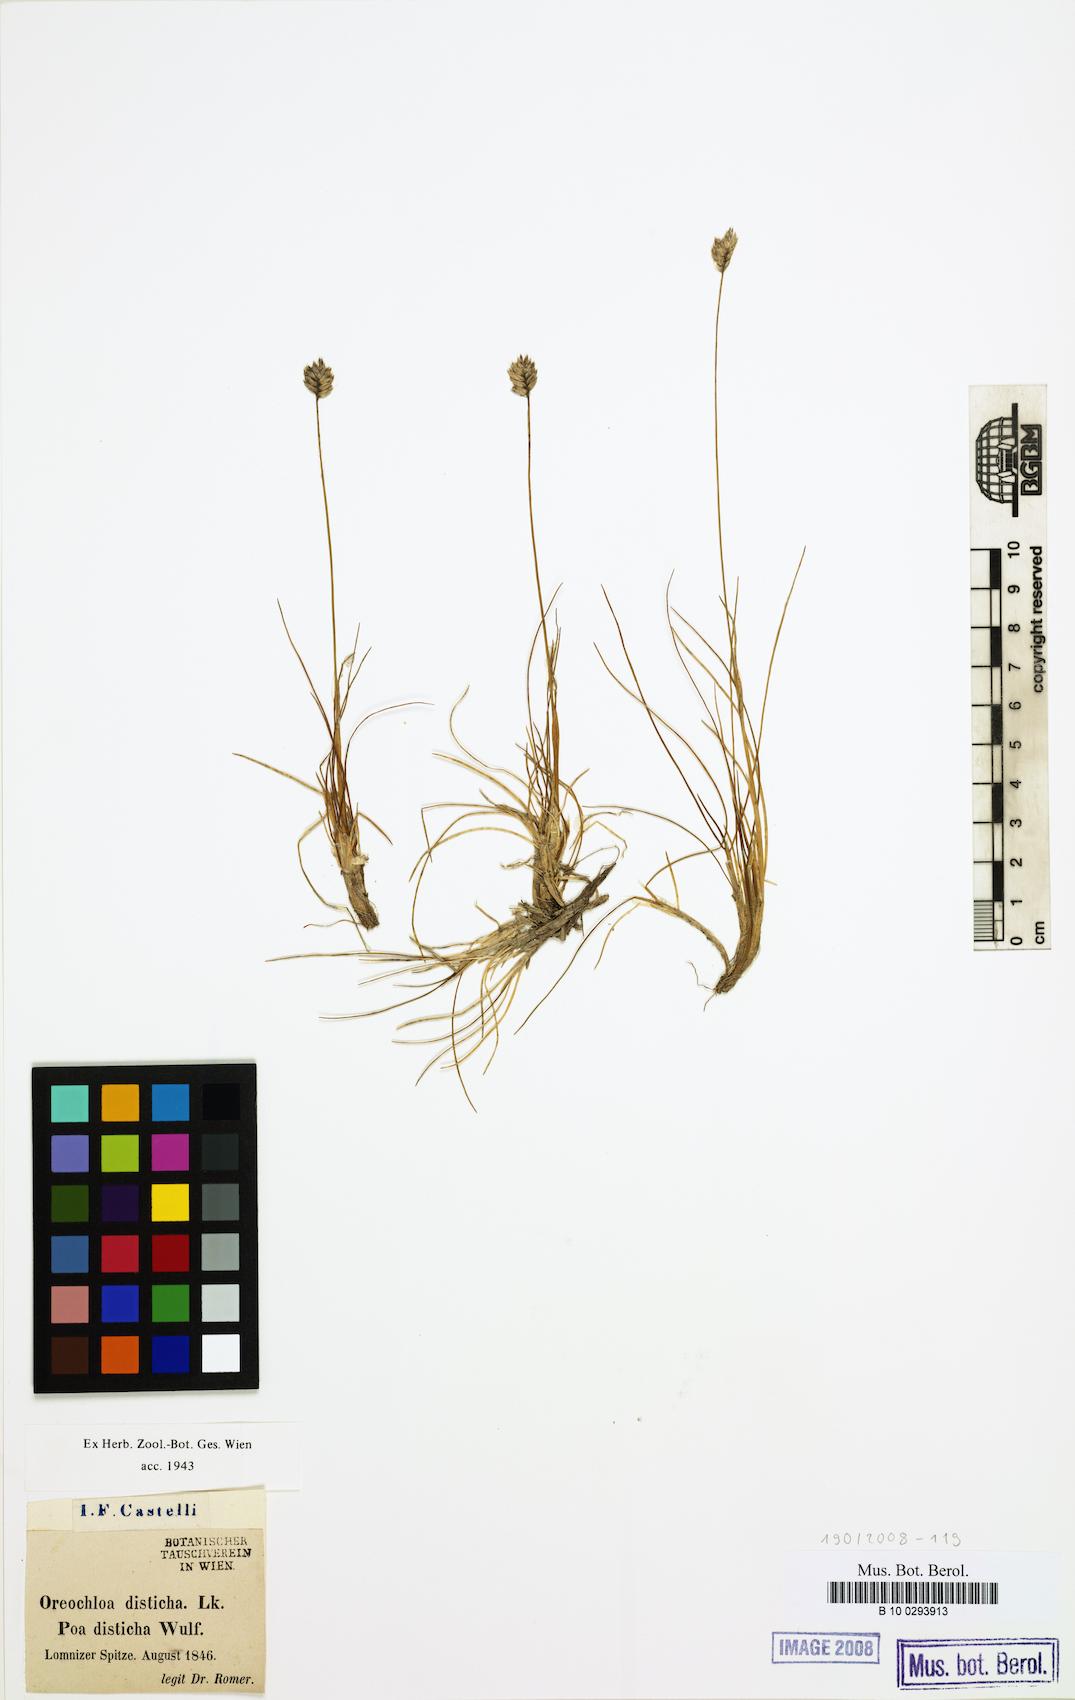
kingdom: Plantae
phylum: Tracheophyta
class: Liliopsida
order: Poales
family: Poaceae
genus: Oreochloa
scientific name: Oreochloa disticha
